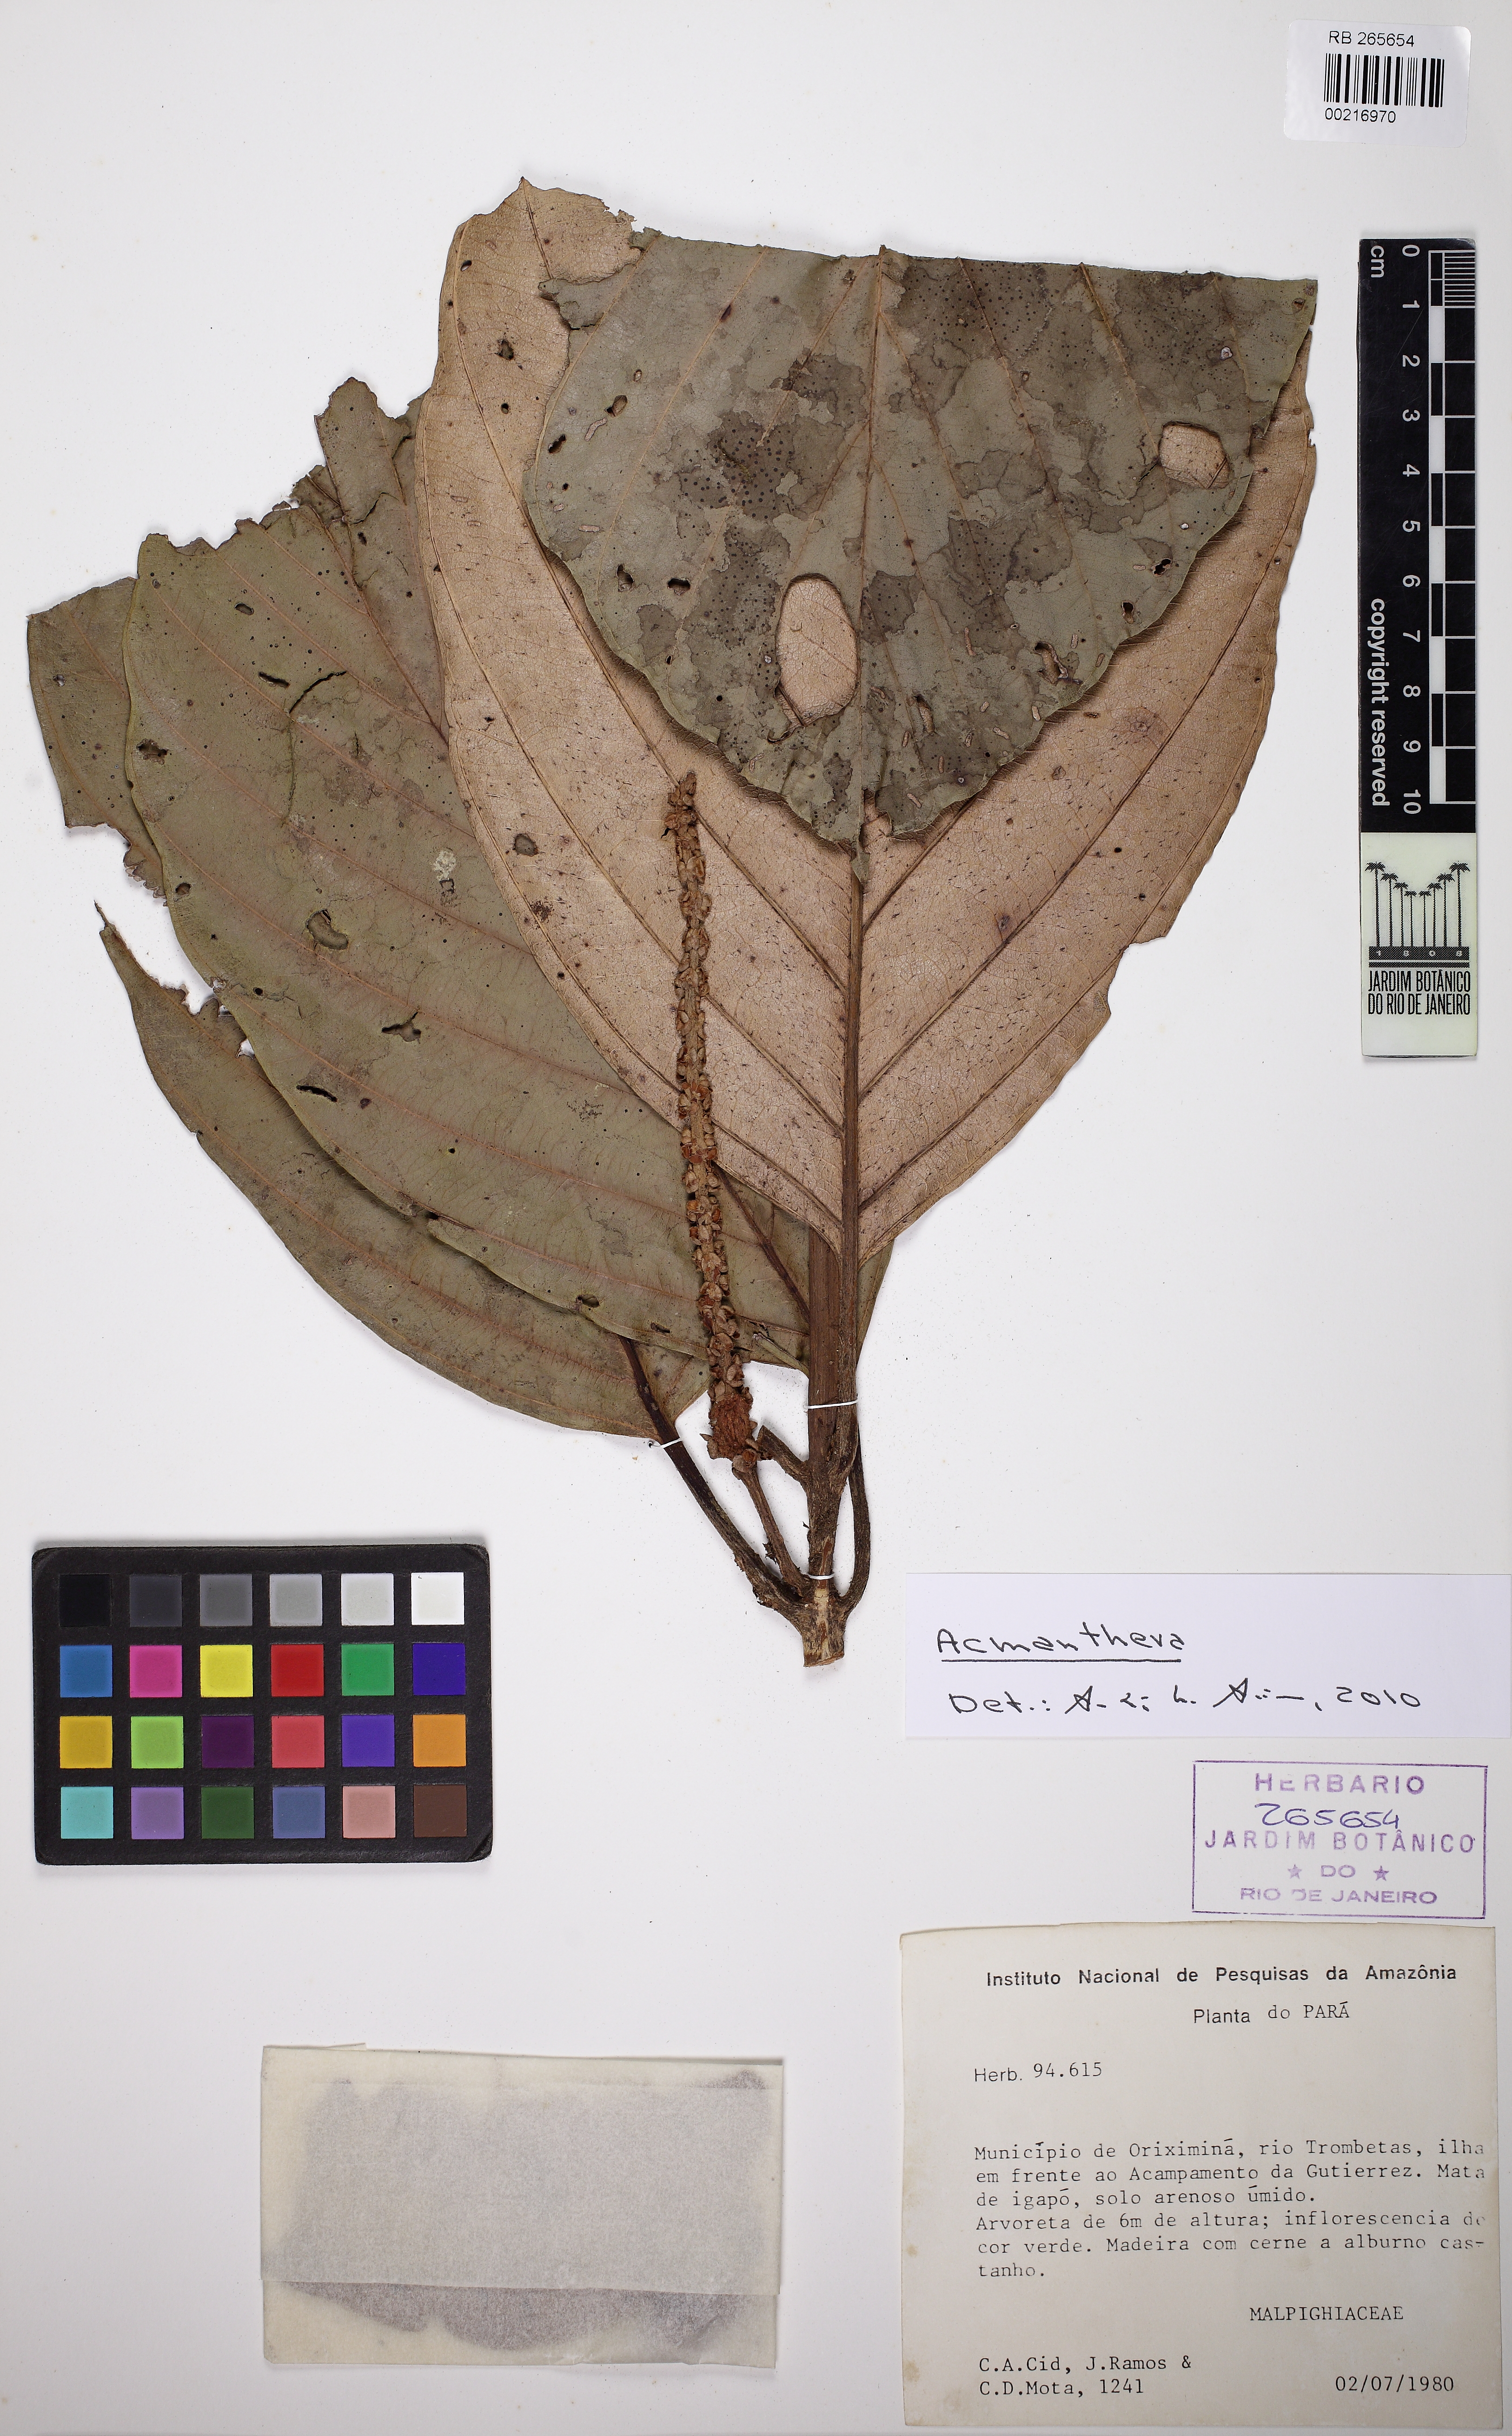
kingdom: Plantae
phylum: Tracheophyta
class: Magnoliopsida
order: Malpighiales
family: Malpighiaceae
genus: Acmanthera
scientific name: Acmanthera
